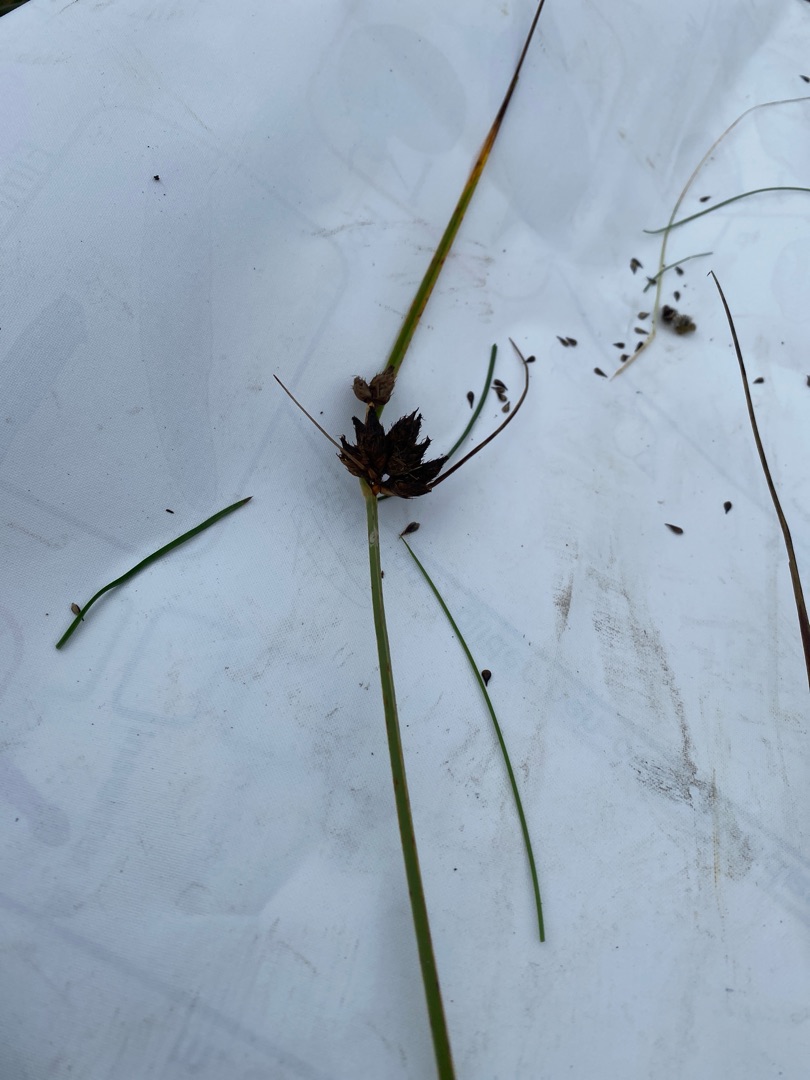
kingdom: Plantae
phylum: Tracheophyta
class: Liliopsida
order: Poales
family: Cyperaceae
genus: Bolboschoenus
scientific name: Bolboschoenus maritimus
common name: Strand-kogleaks
